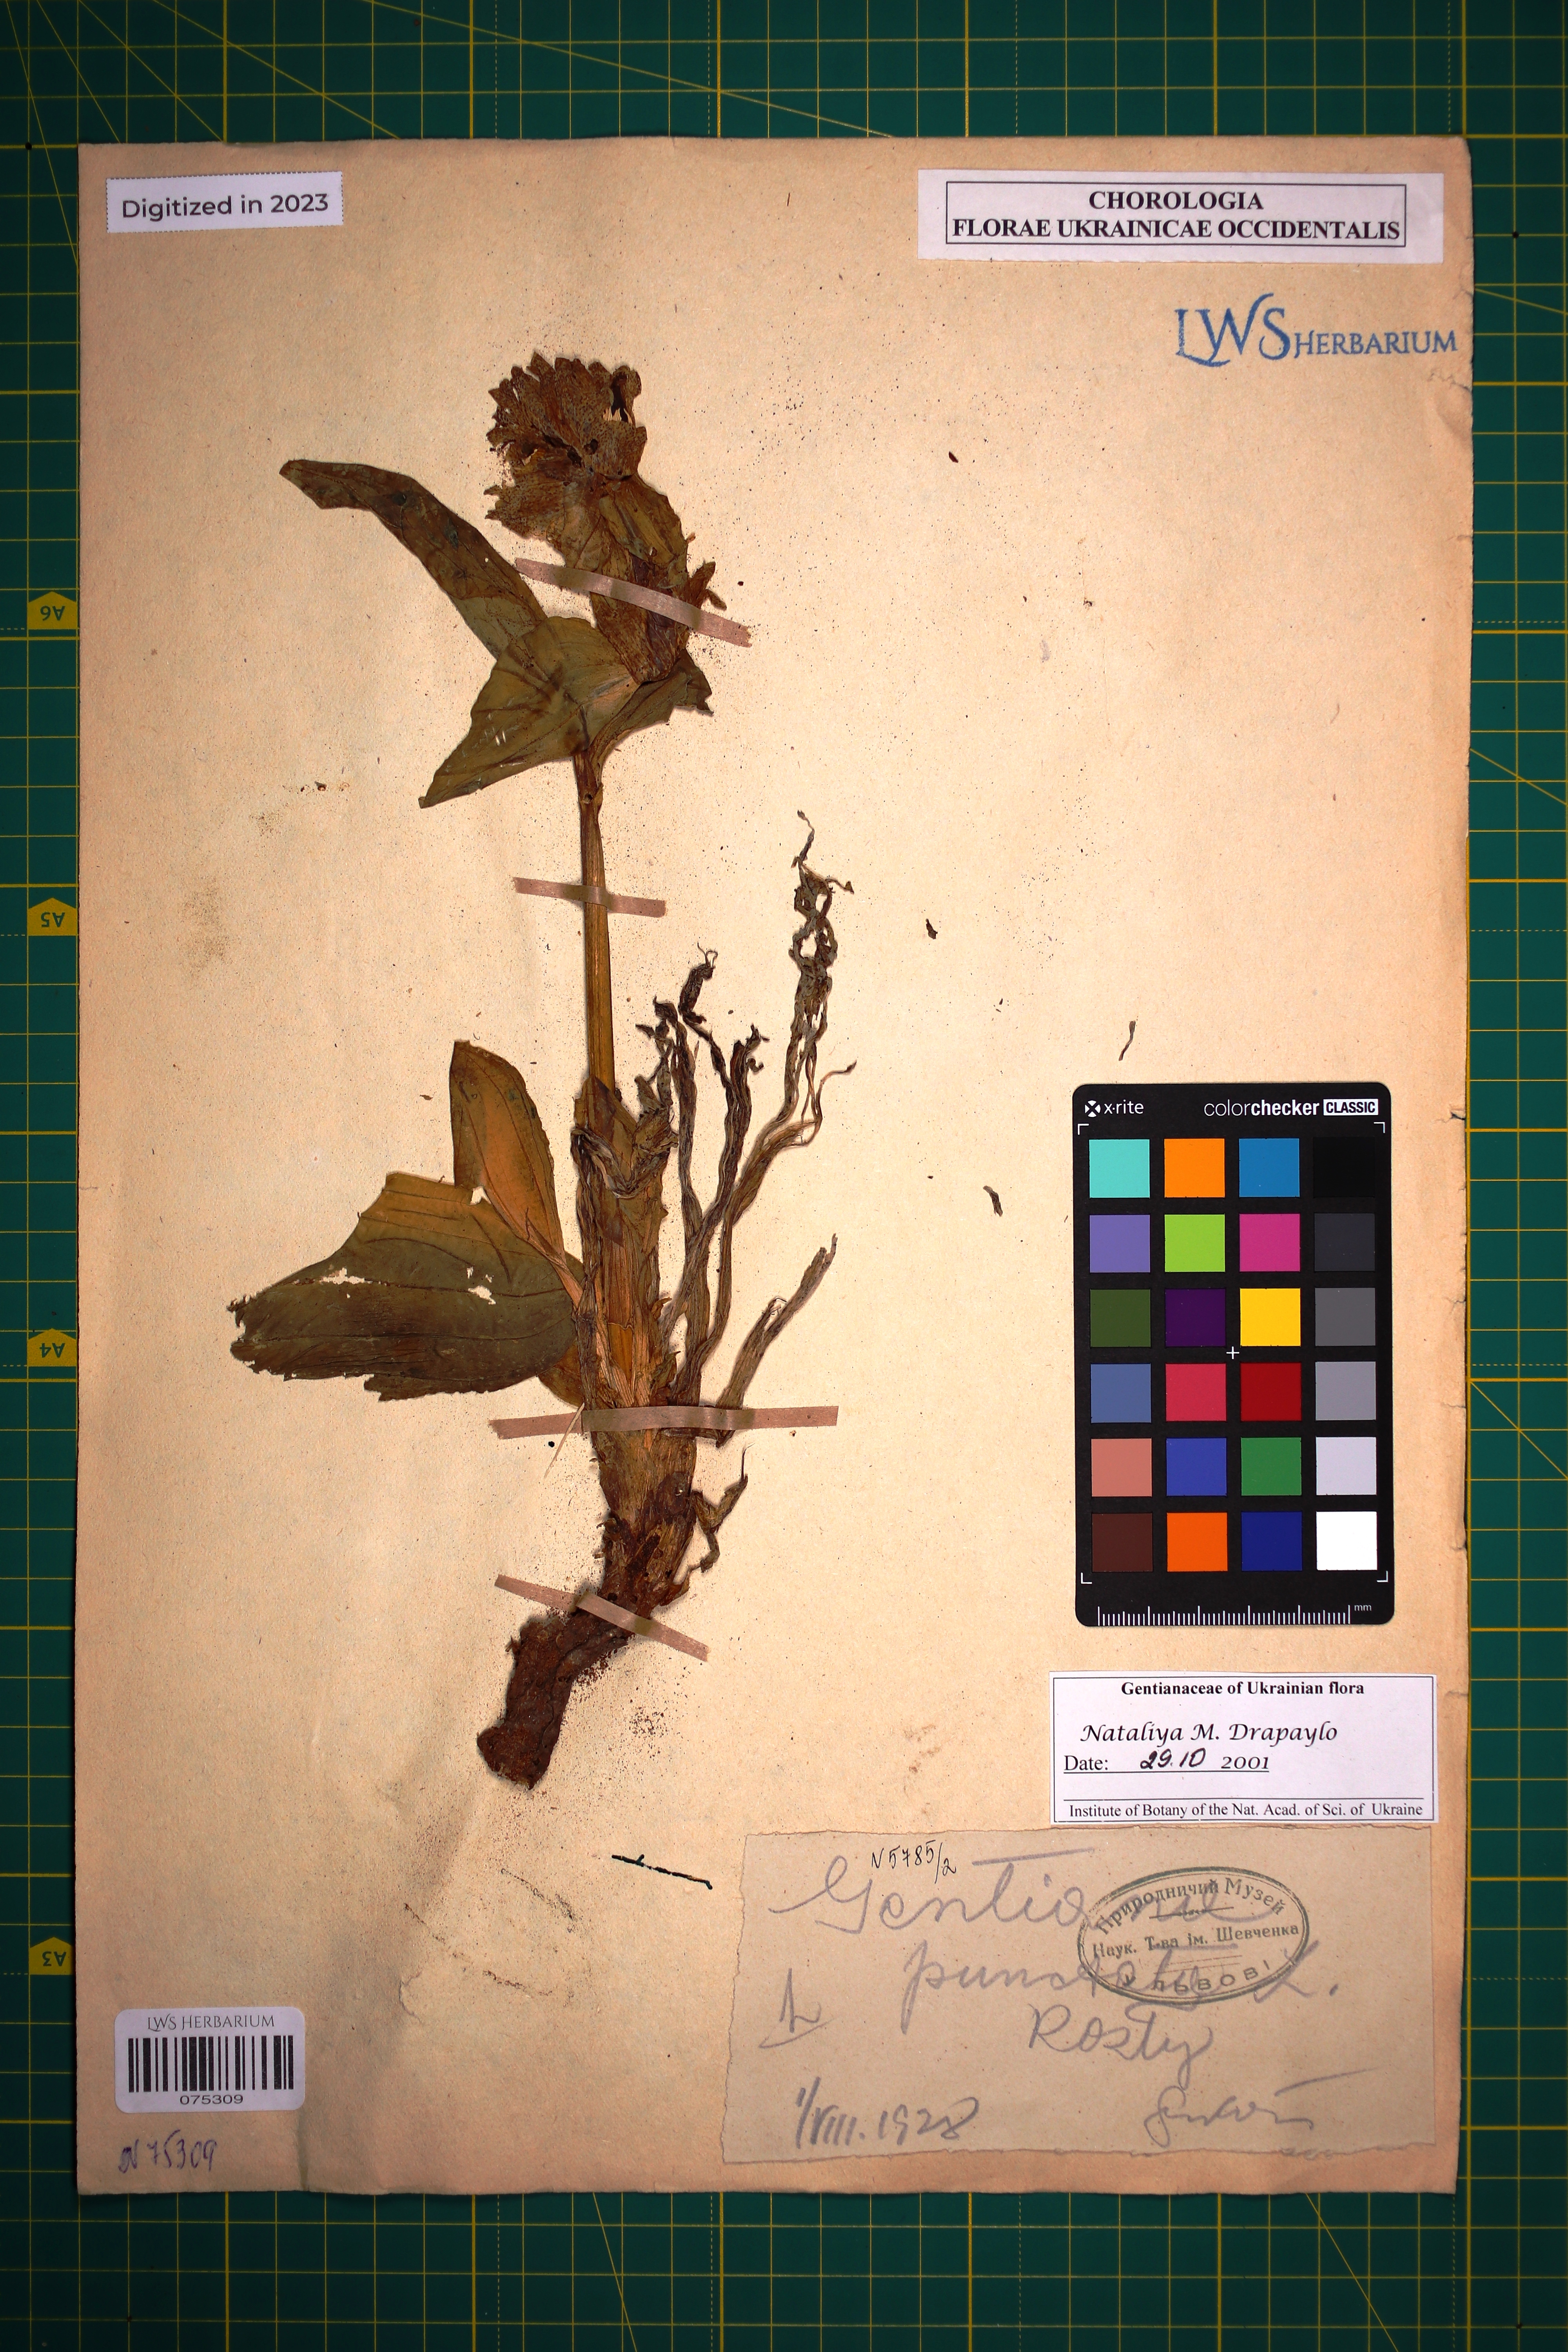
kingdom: Plantae
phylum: Tracheophyta
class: Magnoliopsida
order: Gentianales
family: Gentianaceae
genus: Gentiana
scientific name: Gentiana punctata
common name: Spotted gentian
